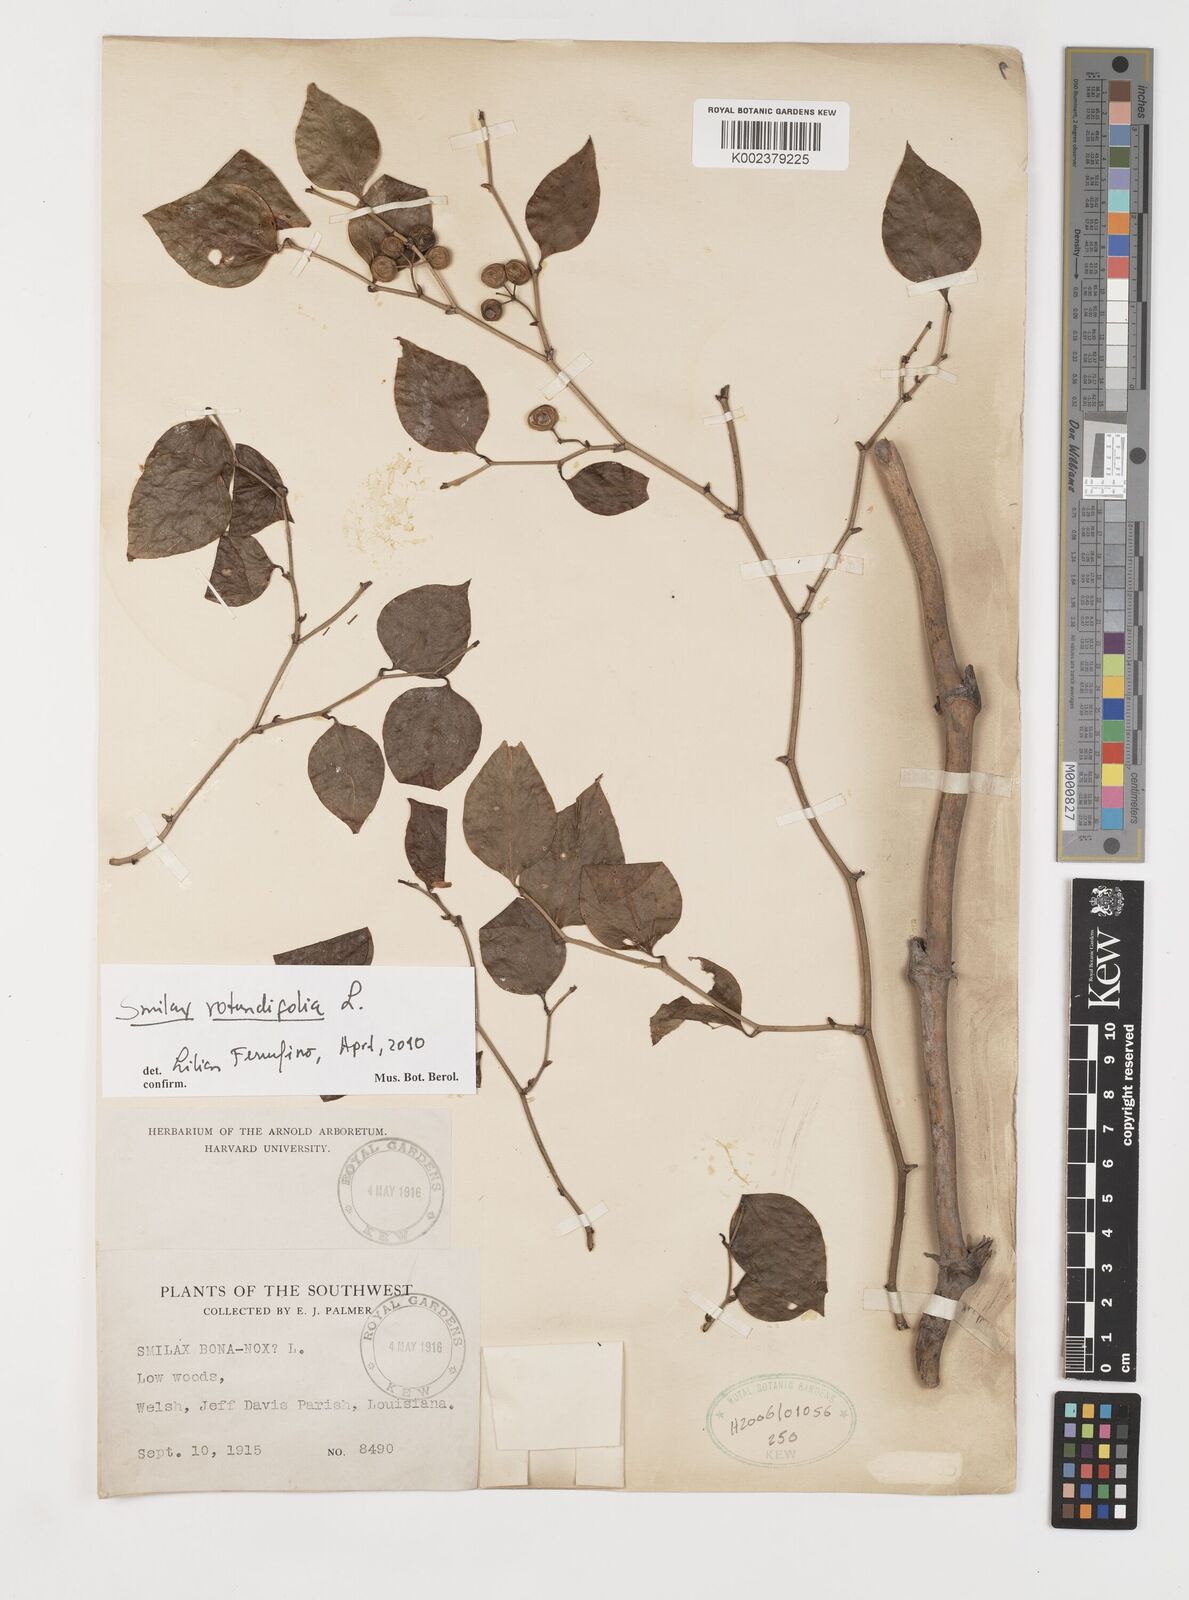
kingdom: Plantae
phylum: Tracheophyta
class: Liliopsida
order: Liliales
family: Smilacaceae
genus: Smilax
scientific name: Smilax rotundifolia
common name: Bullbriar
